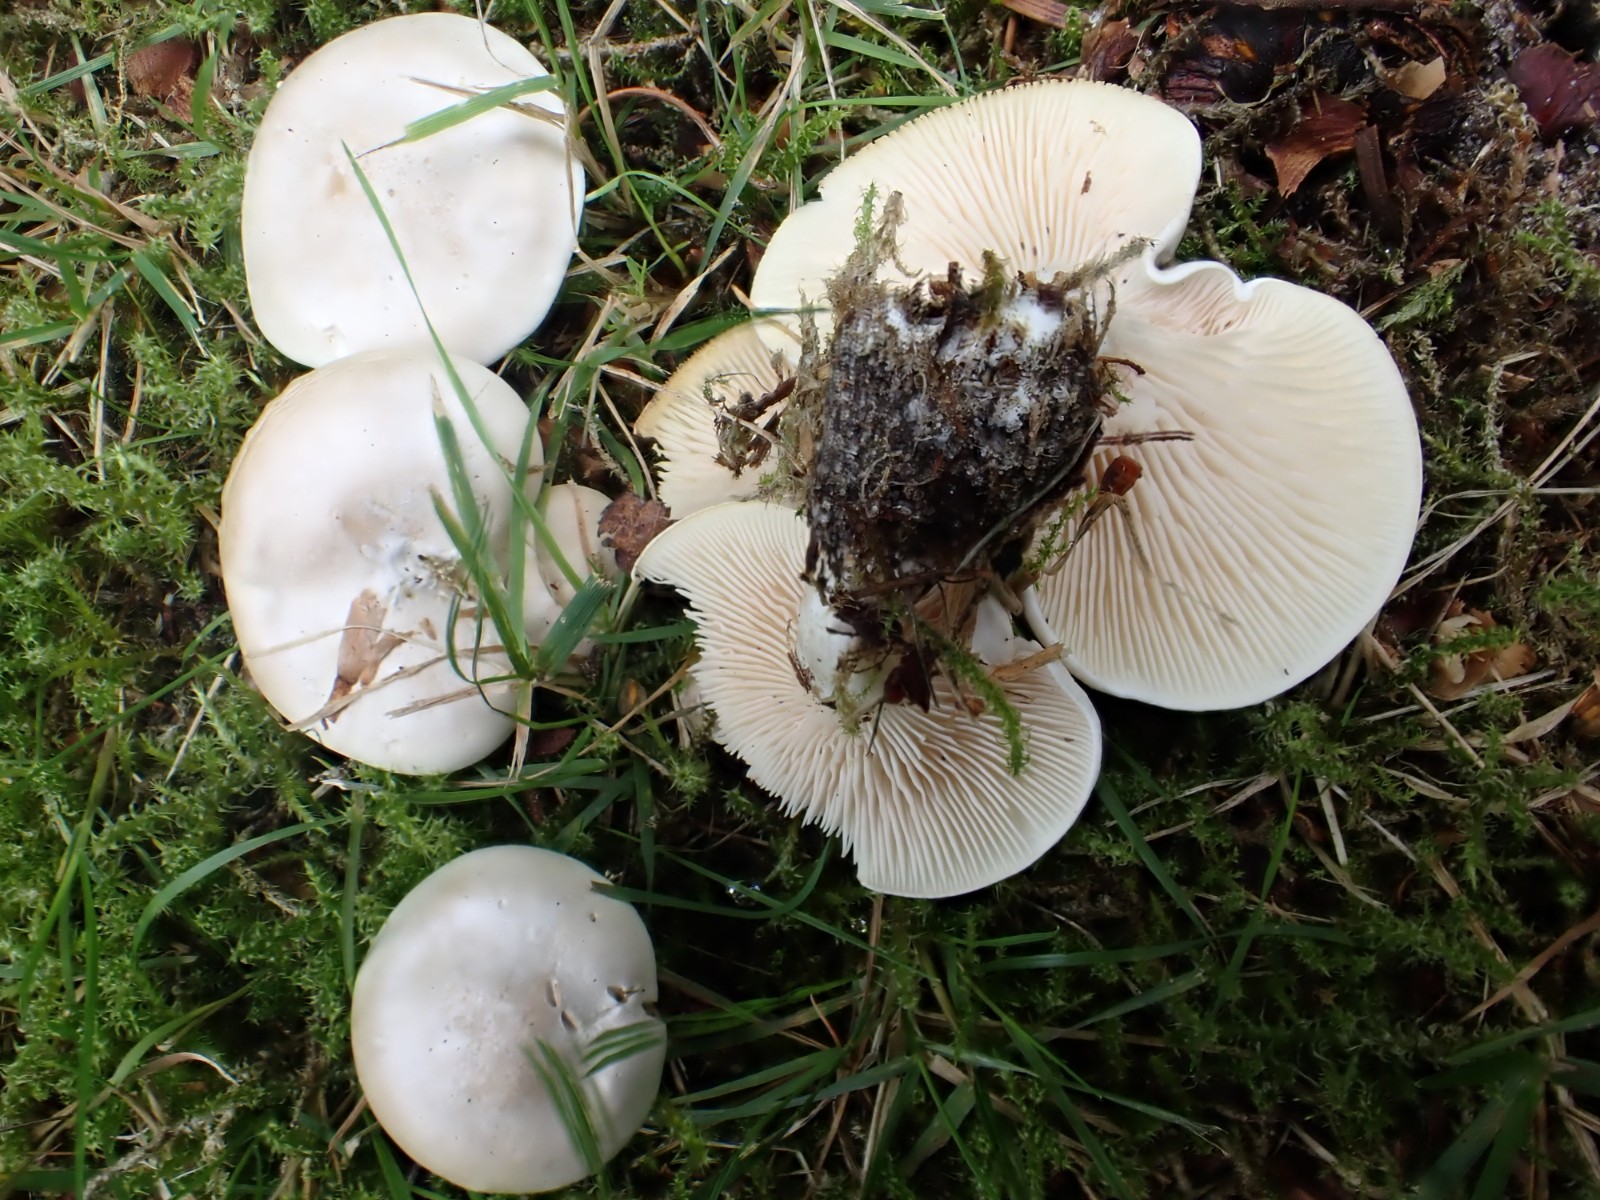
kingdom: Fungi
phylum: Basidiomycota
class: Agaricomycetes
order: Agaricales
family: Entolomataceae
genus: Clitopilus
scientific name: Clitopilus prunulus
